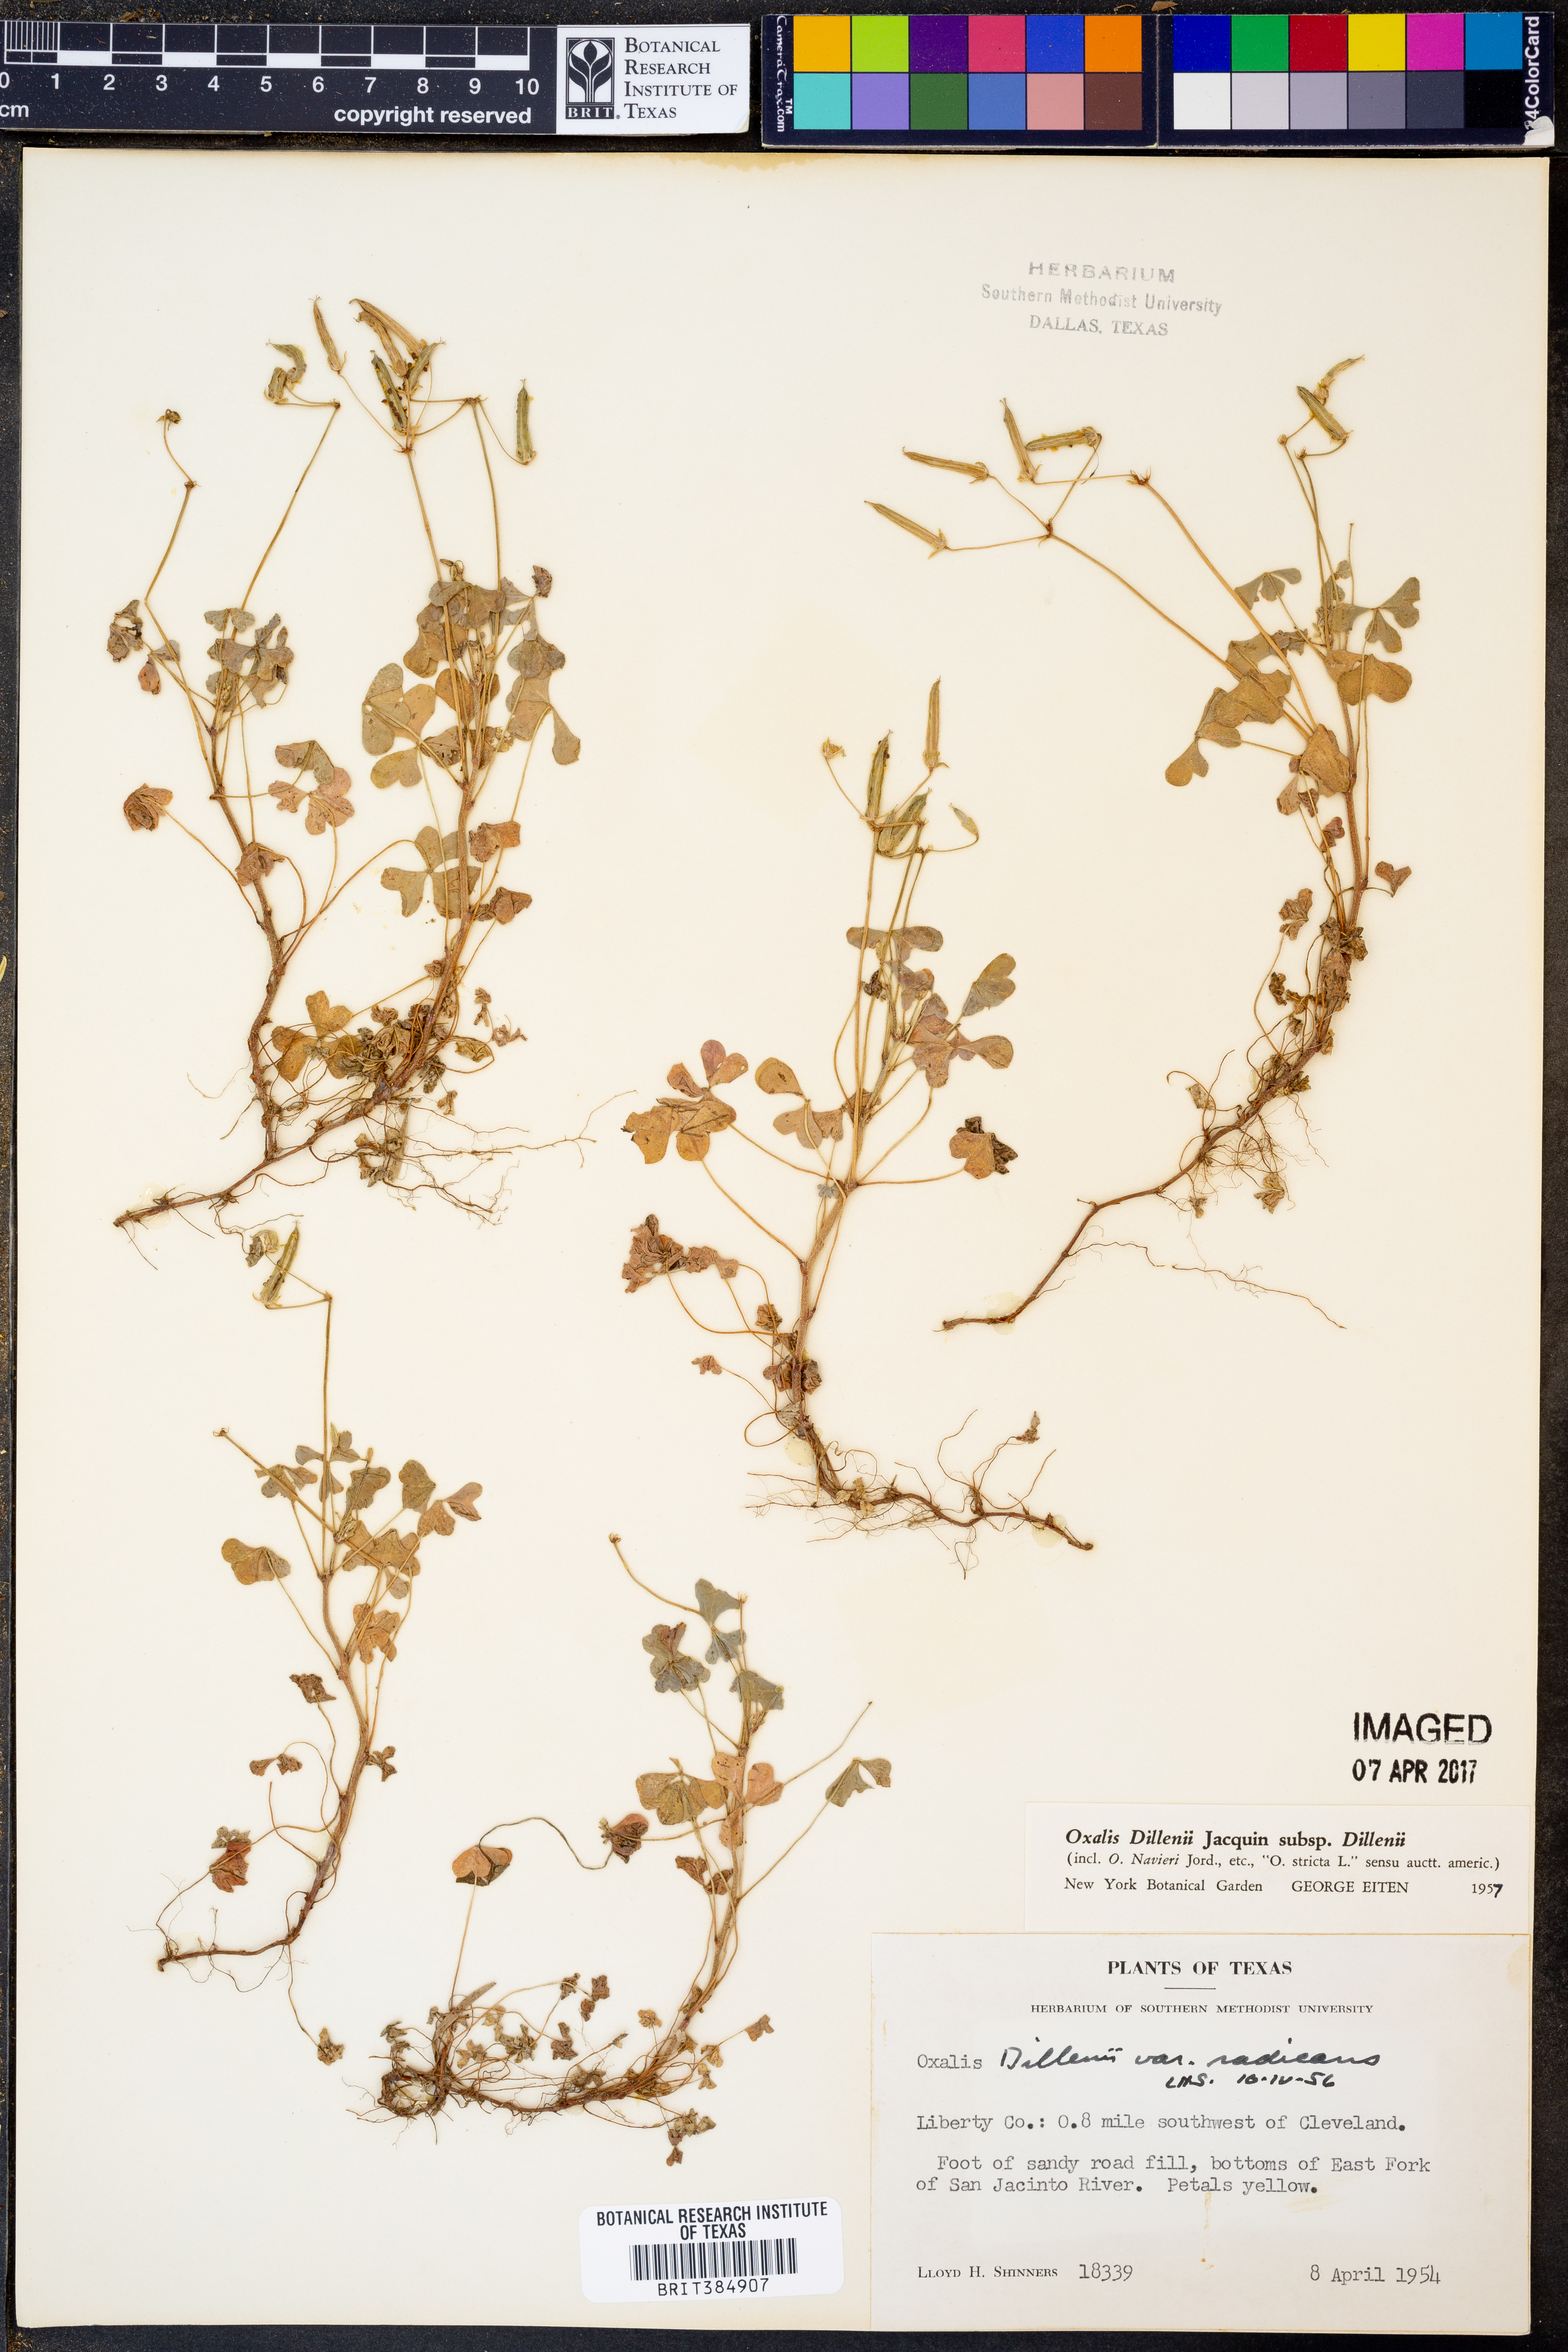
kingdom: Plantae
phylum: Tracheophyta
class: Magnoliopsida
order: Oxalidales
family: Oxalidaceae
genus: Oxalis
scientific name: Oxalis dillenii
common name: Sussex yellow-sorrel
